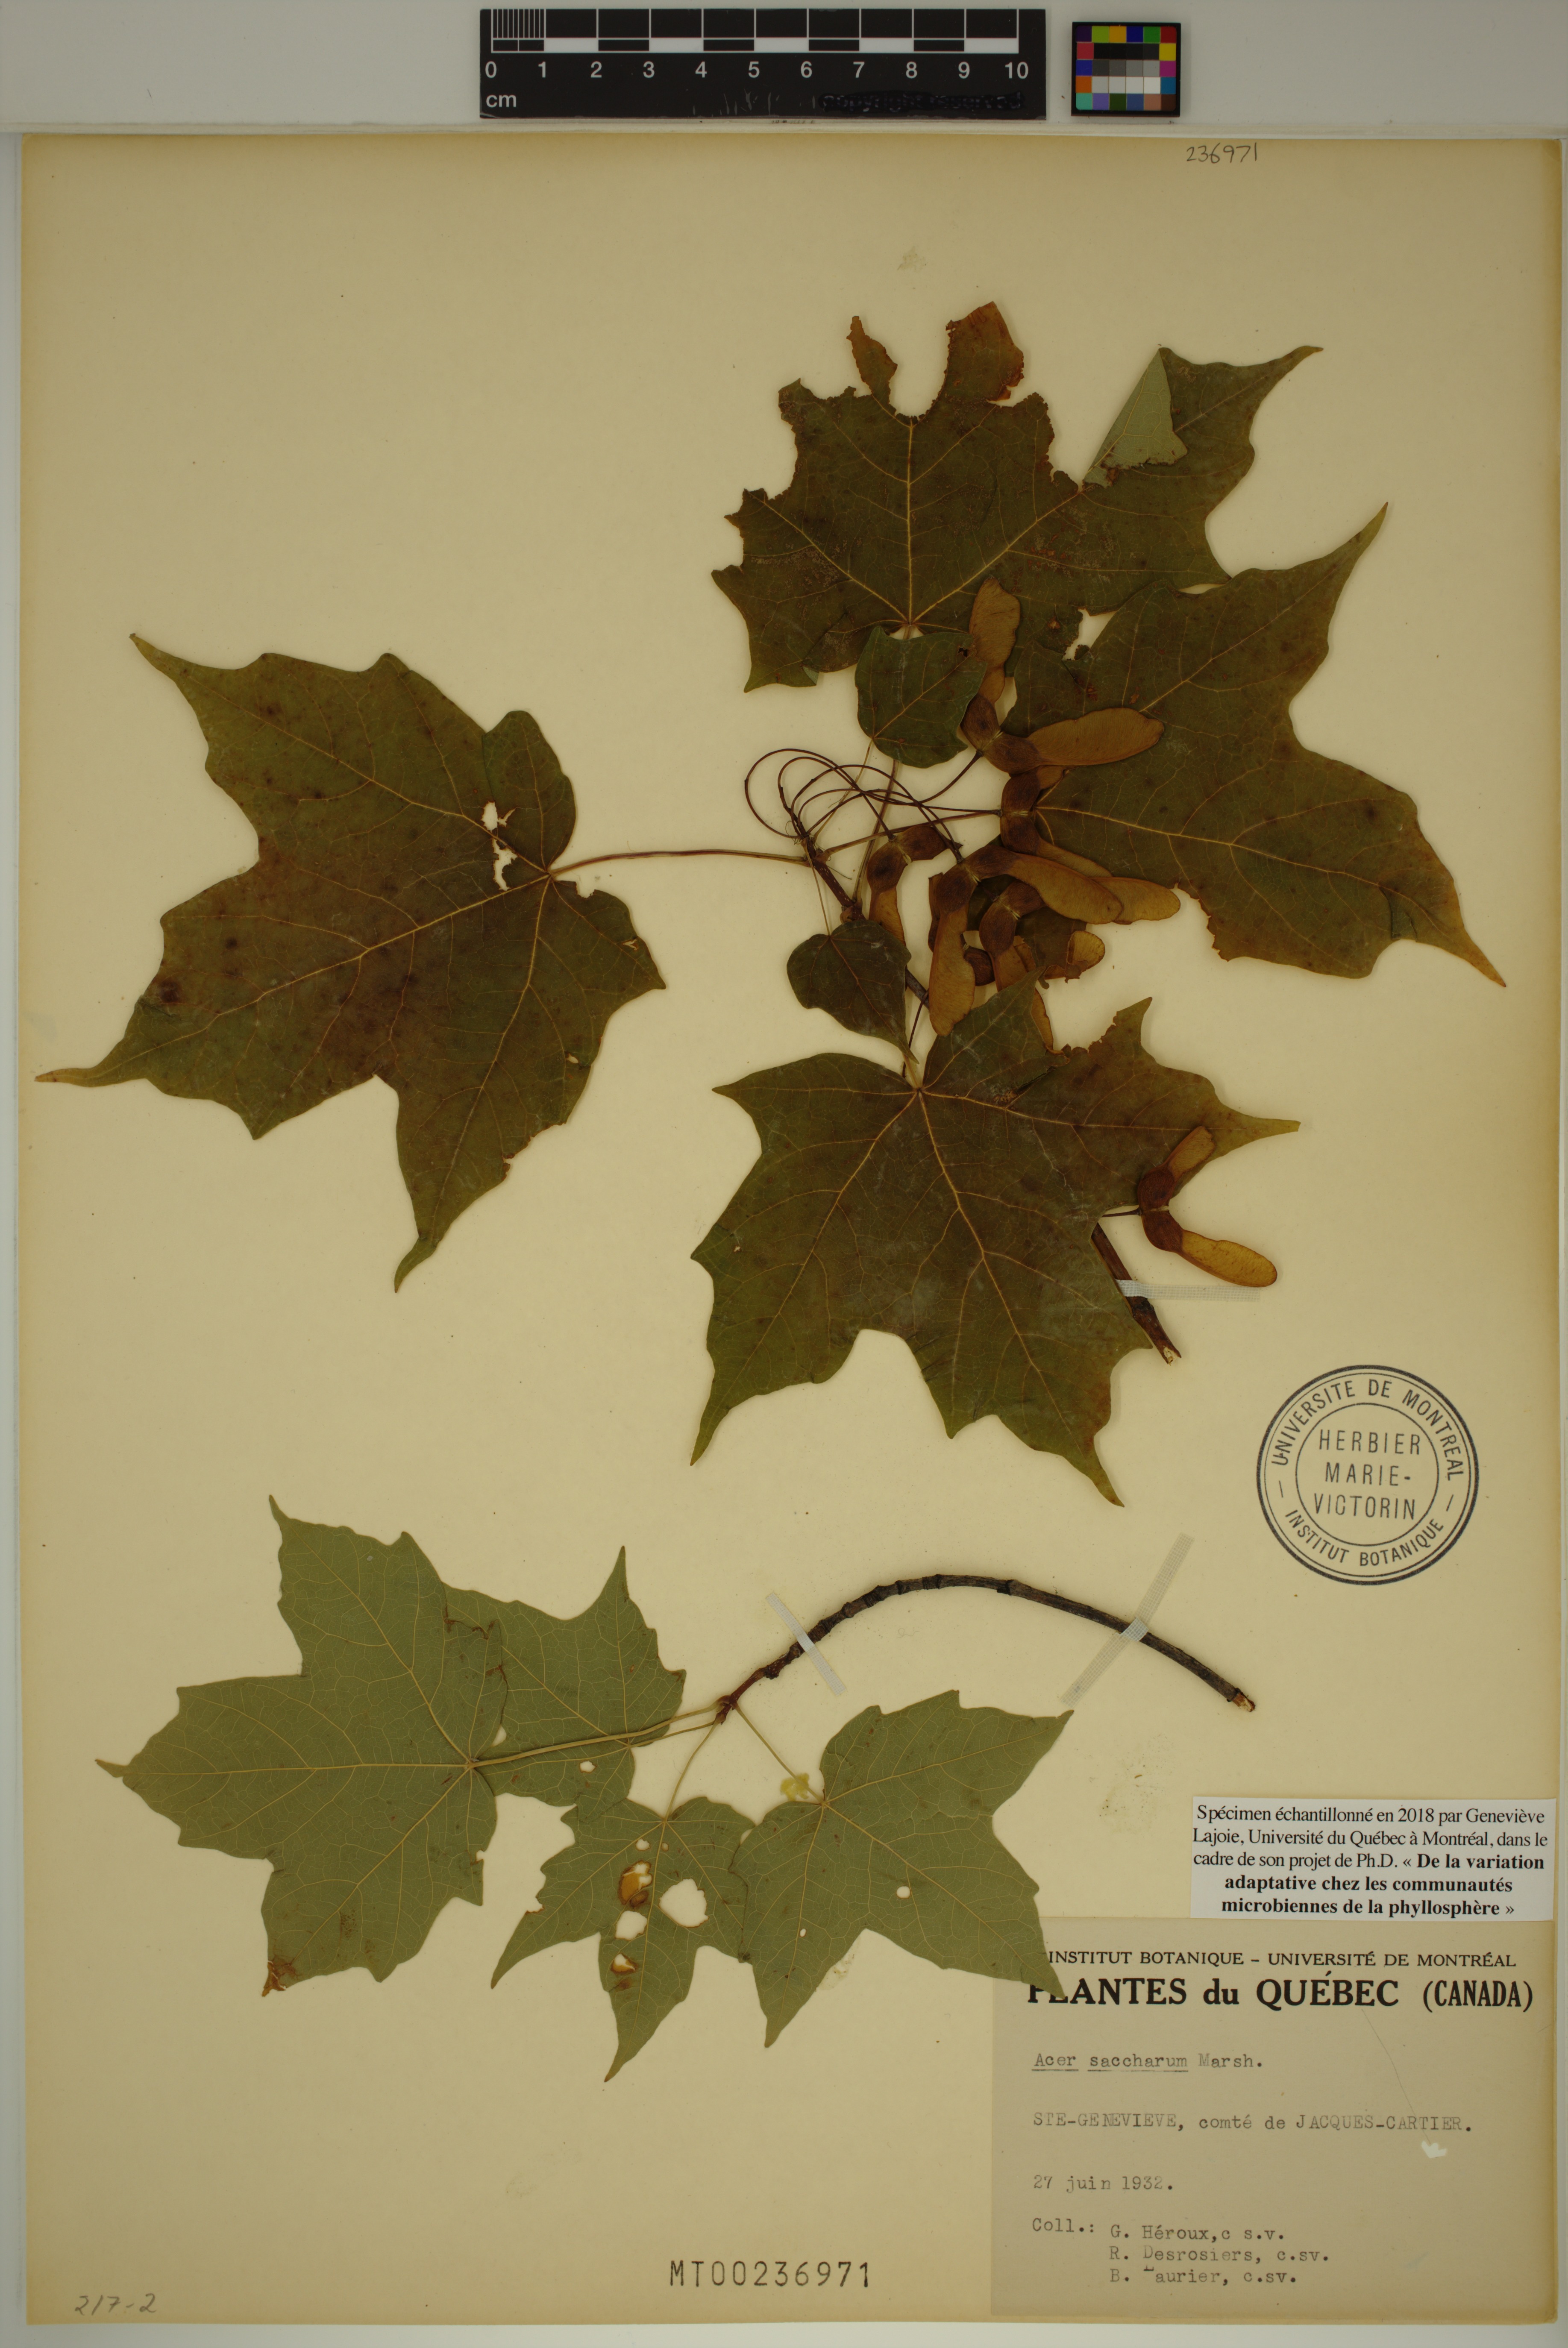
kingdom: Plantae
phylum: Tracheophyta
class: Magnoliopsida
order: Sapindales
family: Sapindaceae
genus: Acer
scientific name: Acer saccharum
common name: Sugar maple
